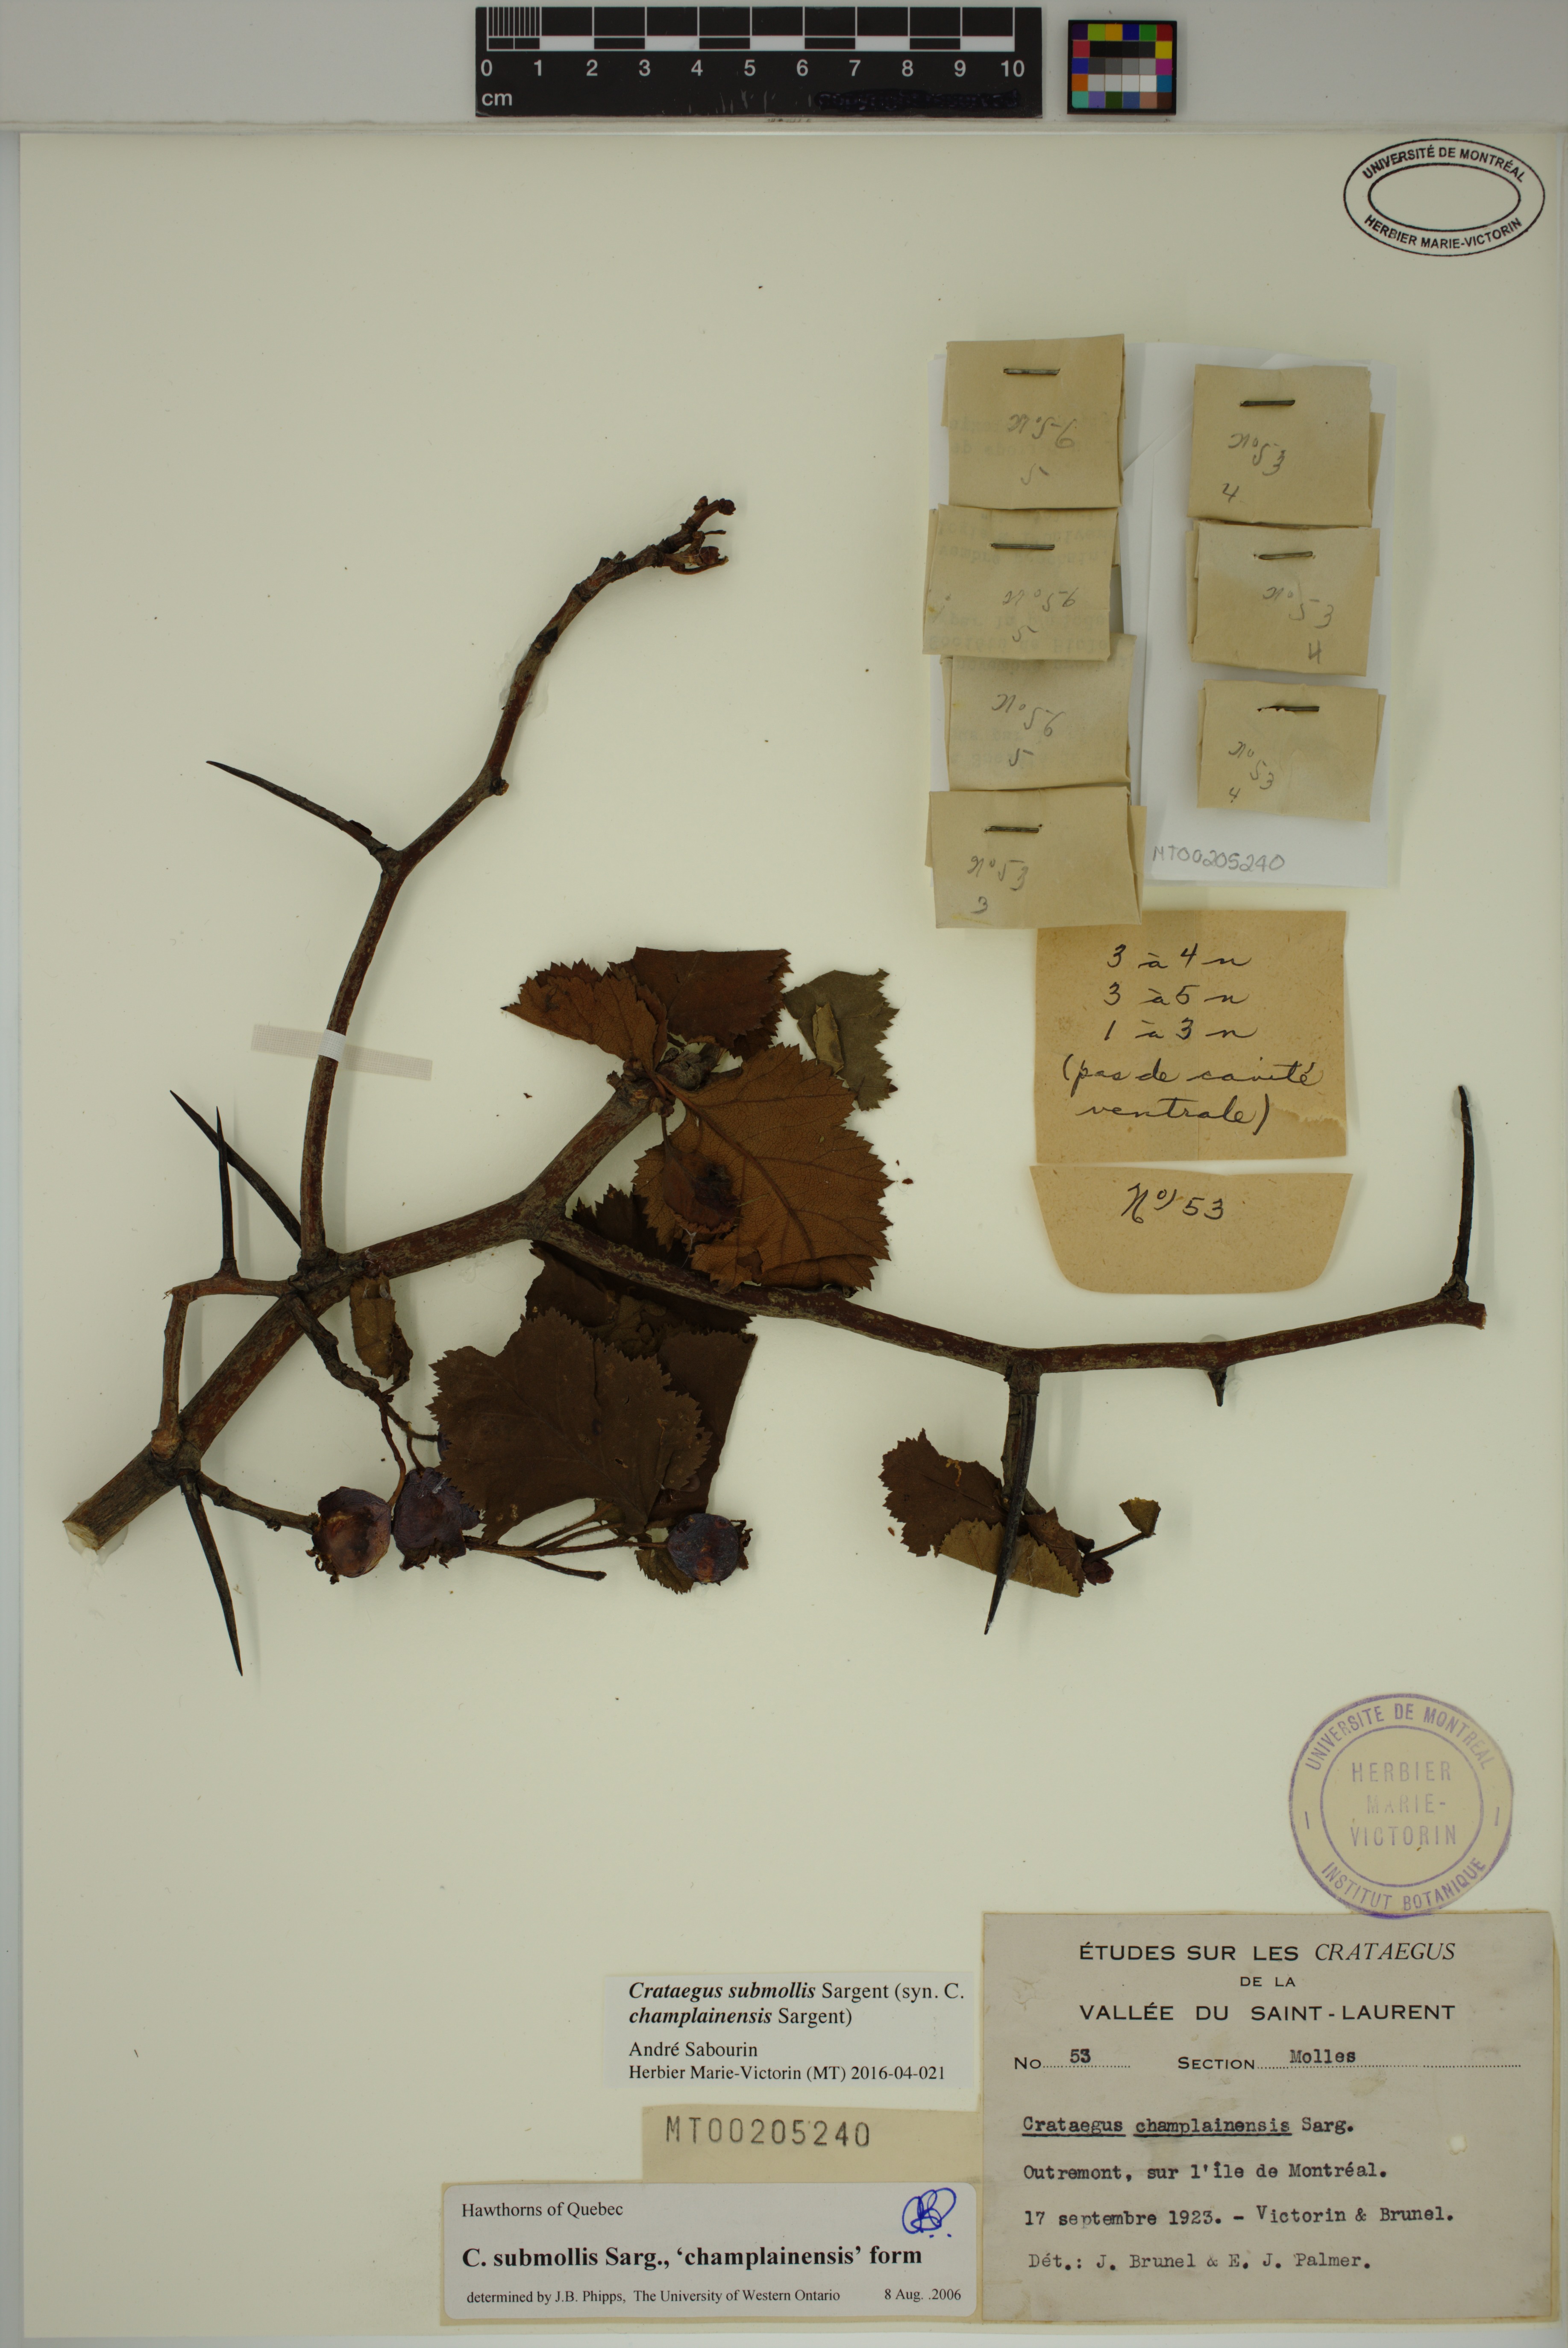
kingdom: Plantae
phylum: Tracheophyta
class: Magnoliopsida
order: Rosales
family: Rosaceae
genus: Crataegus
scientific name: Crataegus submollis
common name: Hairy cockspurthorn
